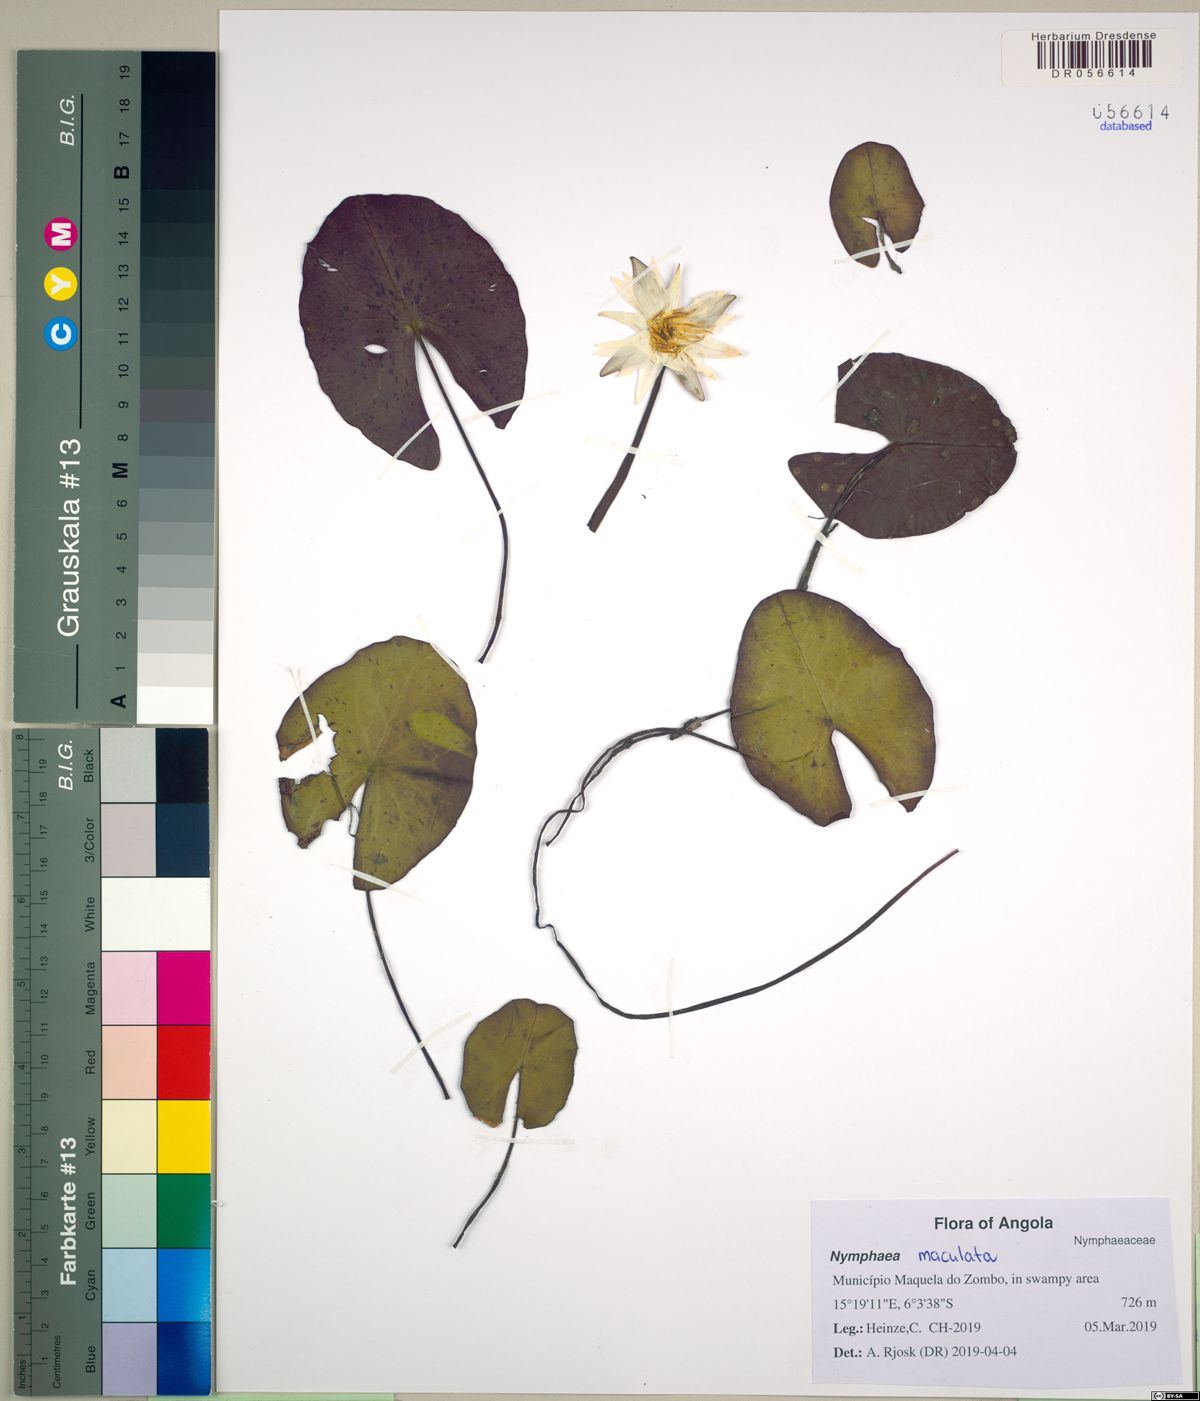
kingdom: Plantae
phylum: Tracheophyta
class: Magnoliopsida
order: Nymphaeales
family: Nymphaeaceae
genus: Nymphaea
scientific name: Nymphaea maculata
